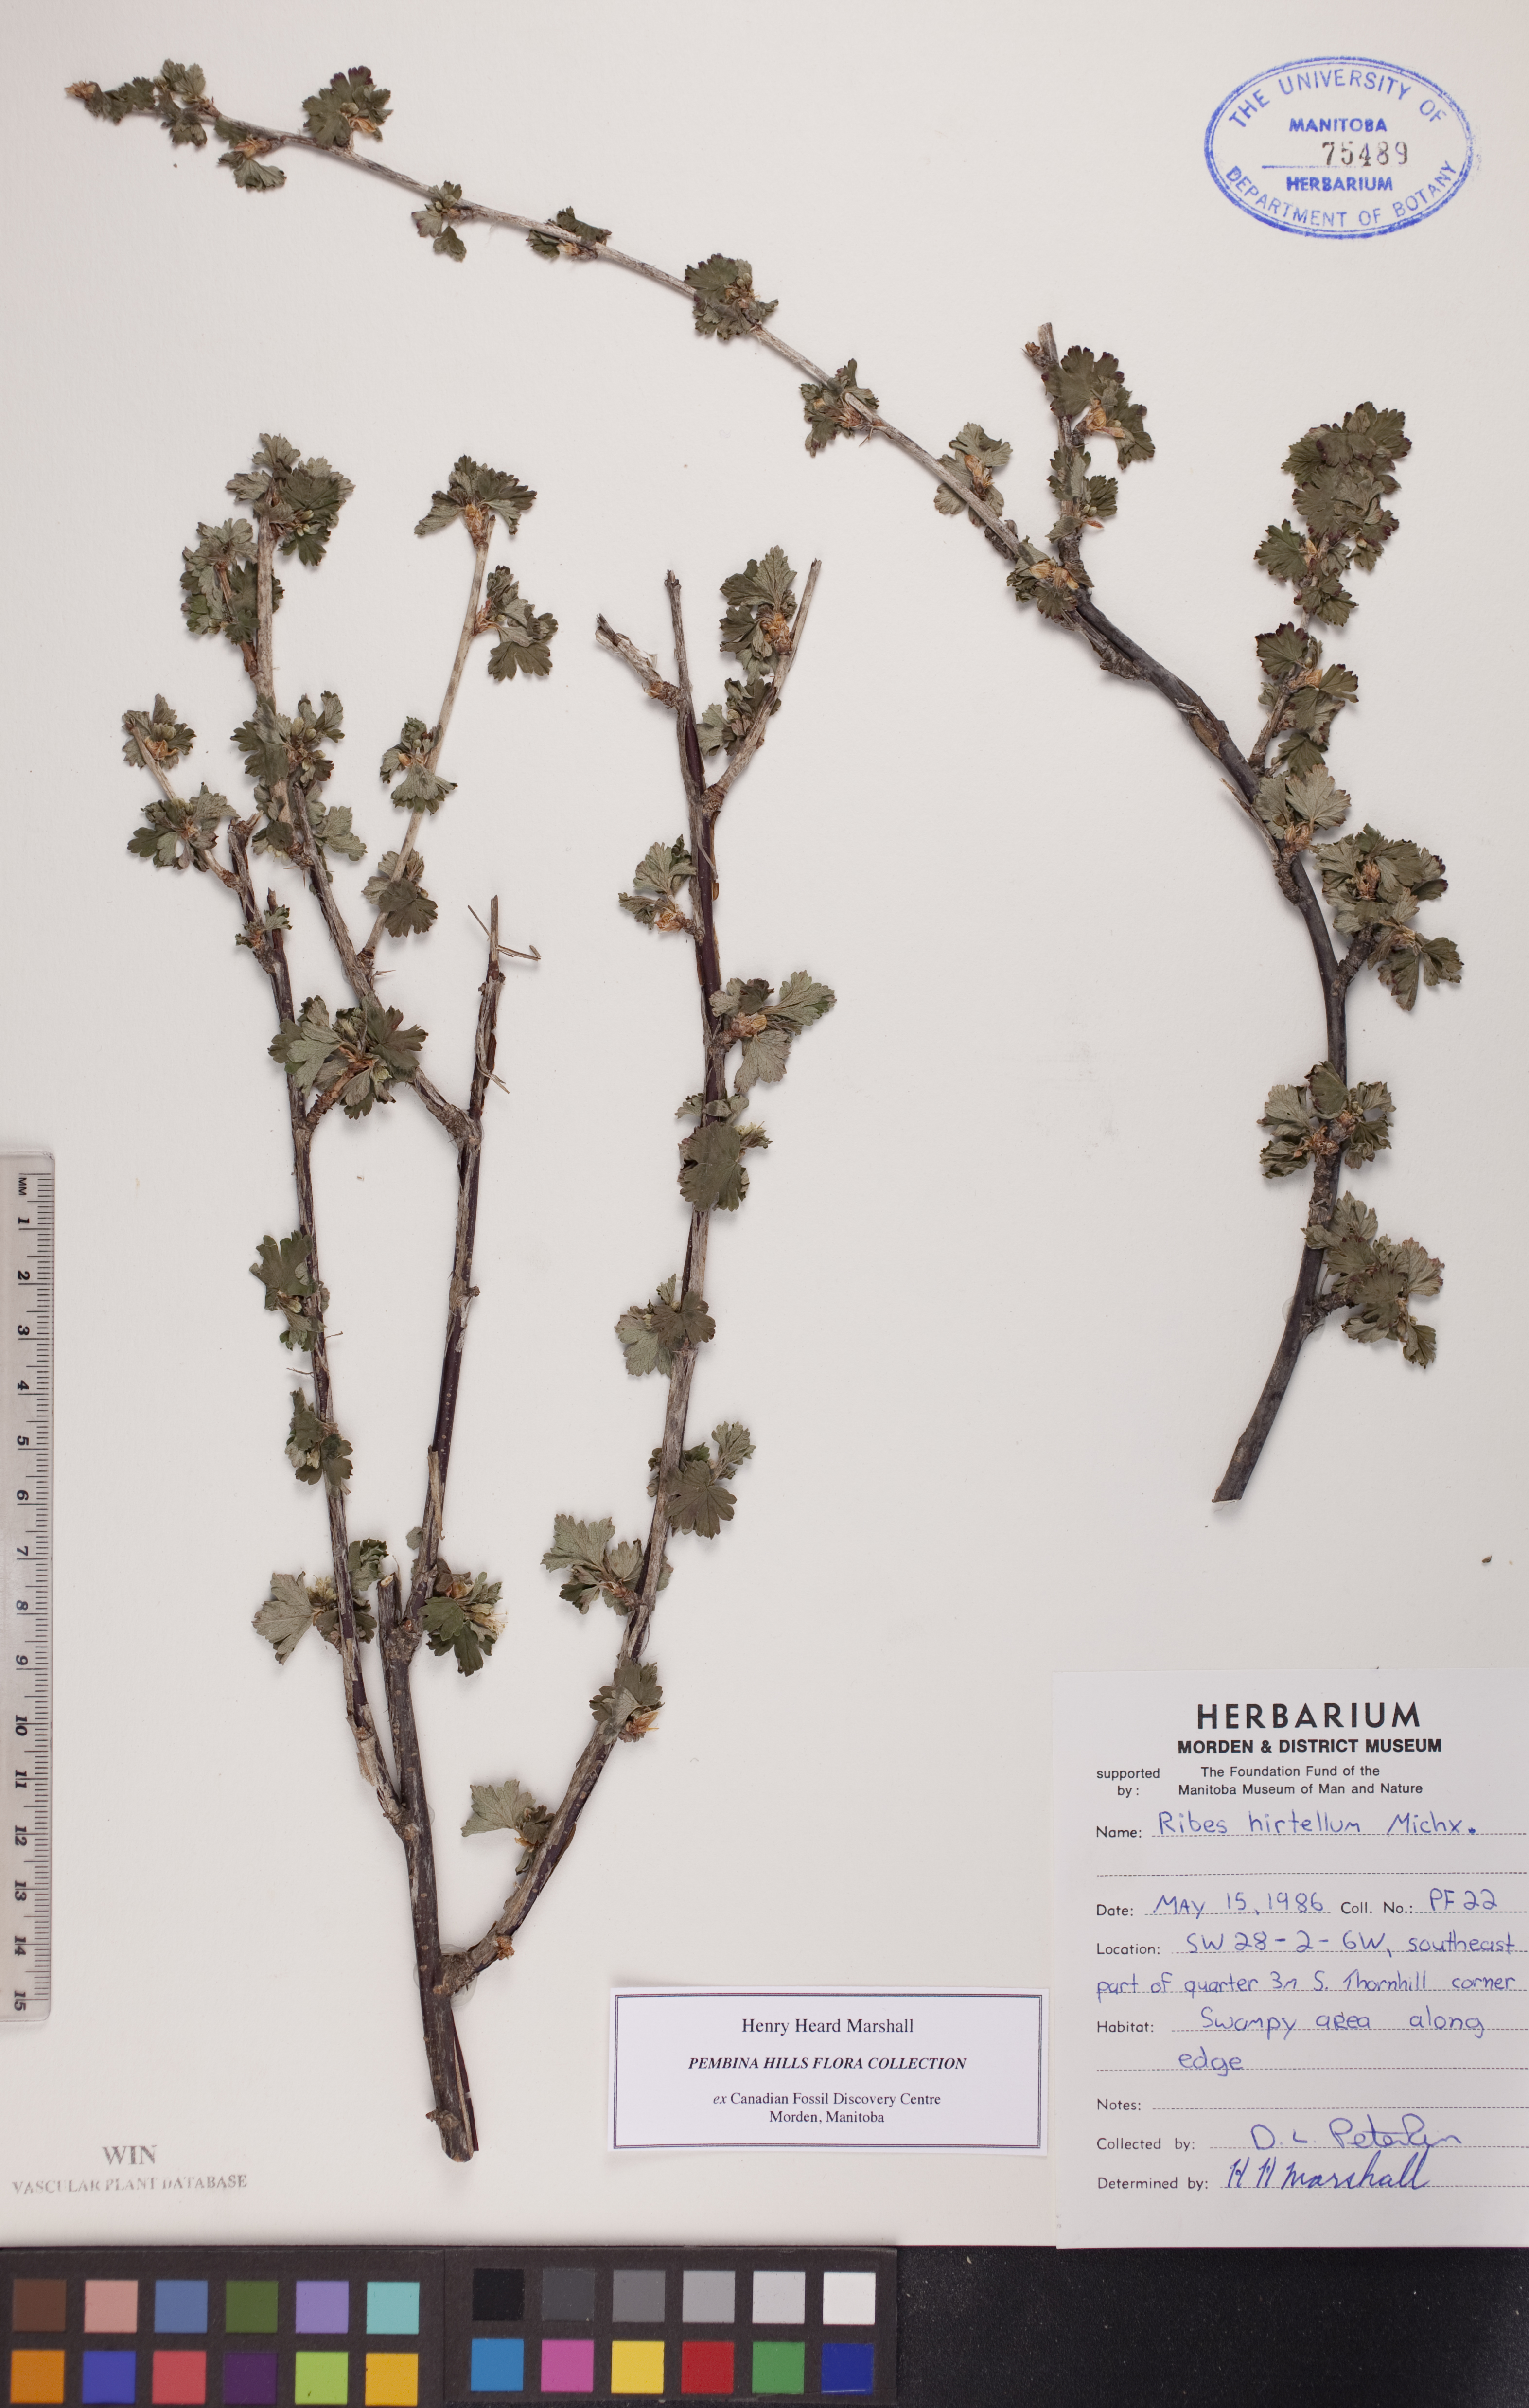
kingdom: Plantae
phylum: Tracheophyta
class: Magnoliopsida
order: Saxifragales
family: Grossulariaceae
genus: Ribes
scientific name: Ribes hirtellum
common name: Hairy gooseberry
